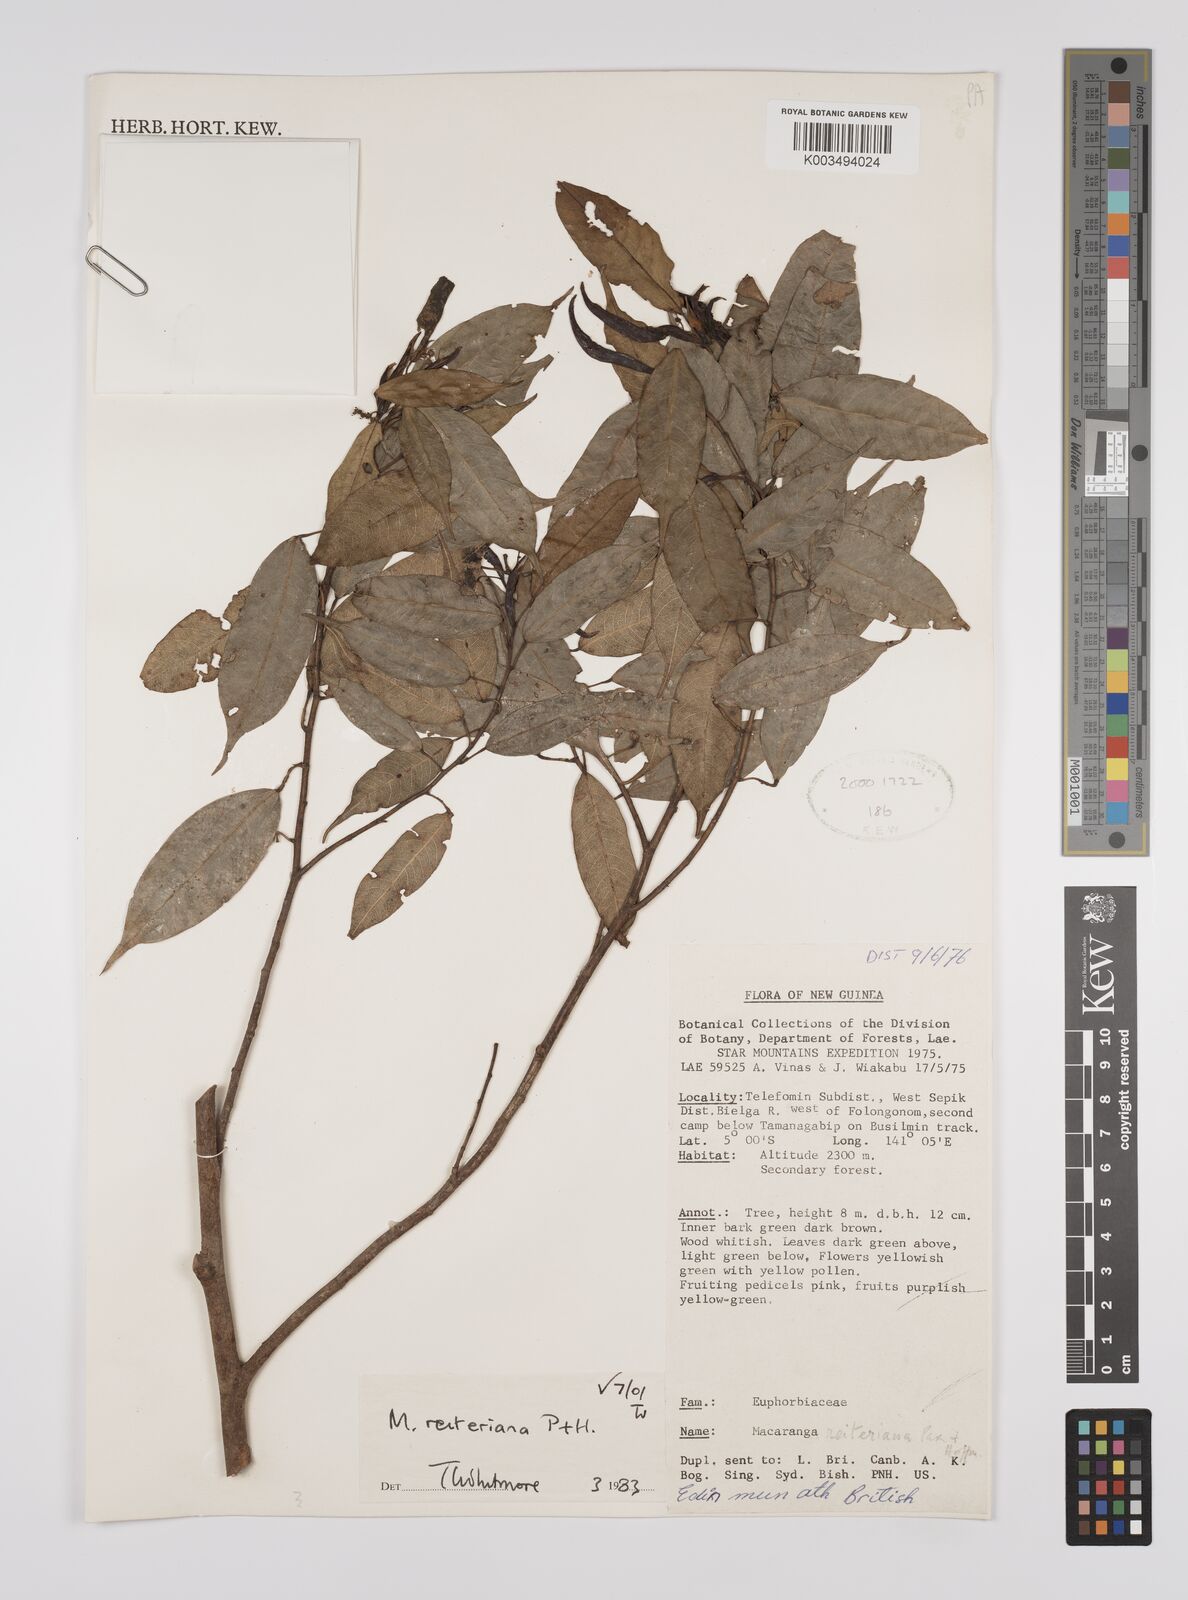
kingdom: Plantae
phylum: Tracheophyta
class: Magnoliopsida
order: Malpighiales
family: Euphorbiaceae
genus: Macaranga
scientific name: Macaranga reiteriana
